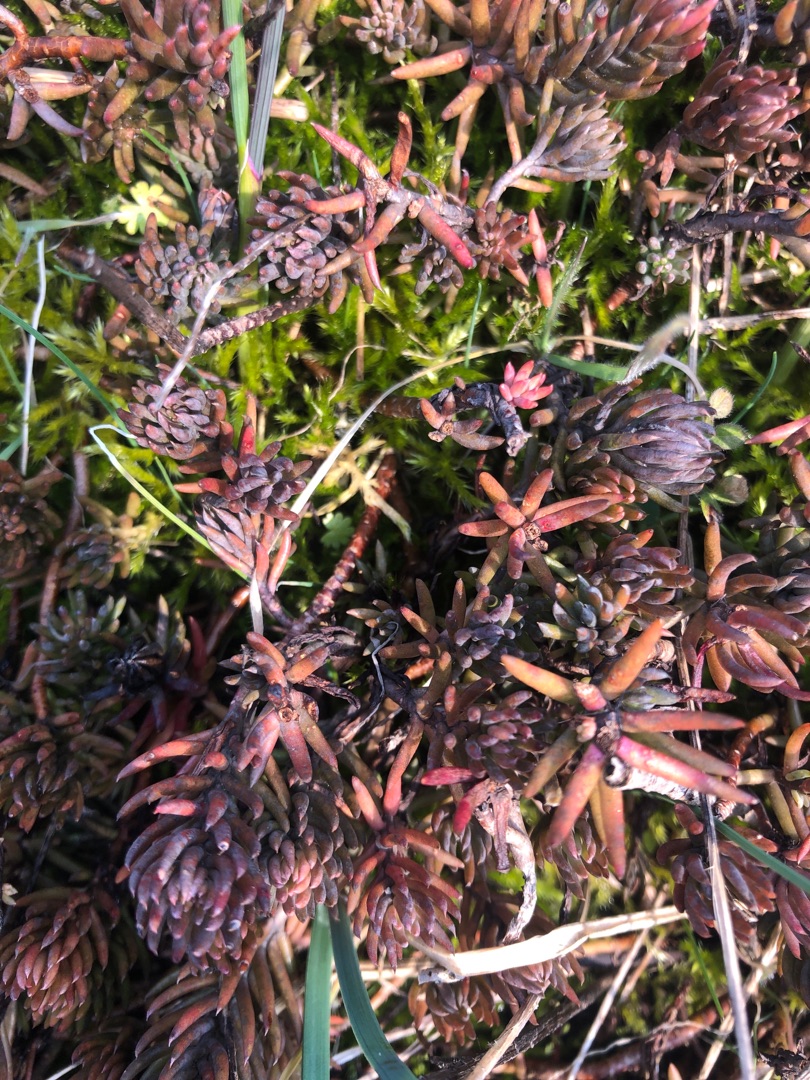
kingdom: Plantae
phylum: Tracheophyta
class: Magnoliopsida
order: Saxifragales
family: Crassulaceae
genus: Petrosedum
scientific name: Petrosedum rupestre
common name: Bjerg-stenurt
